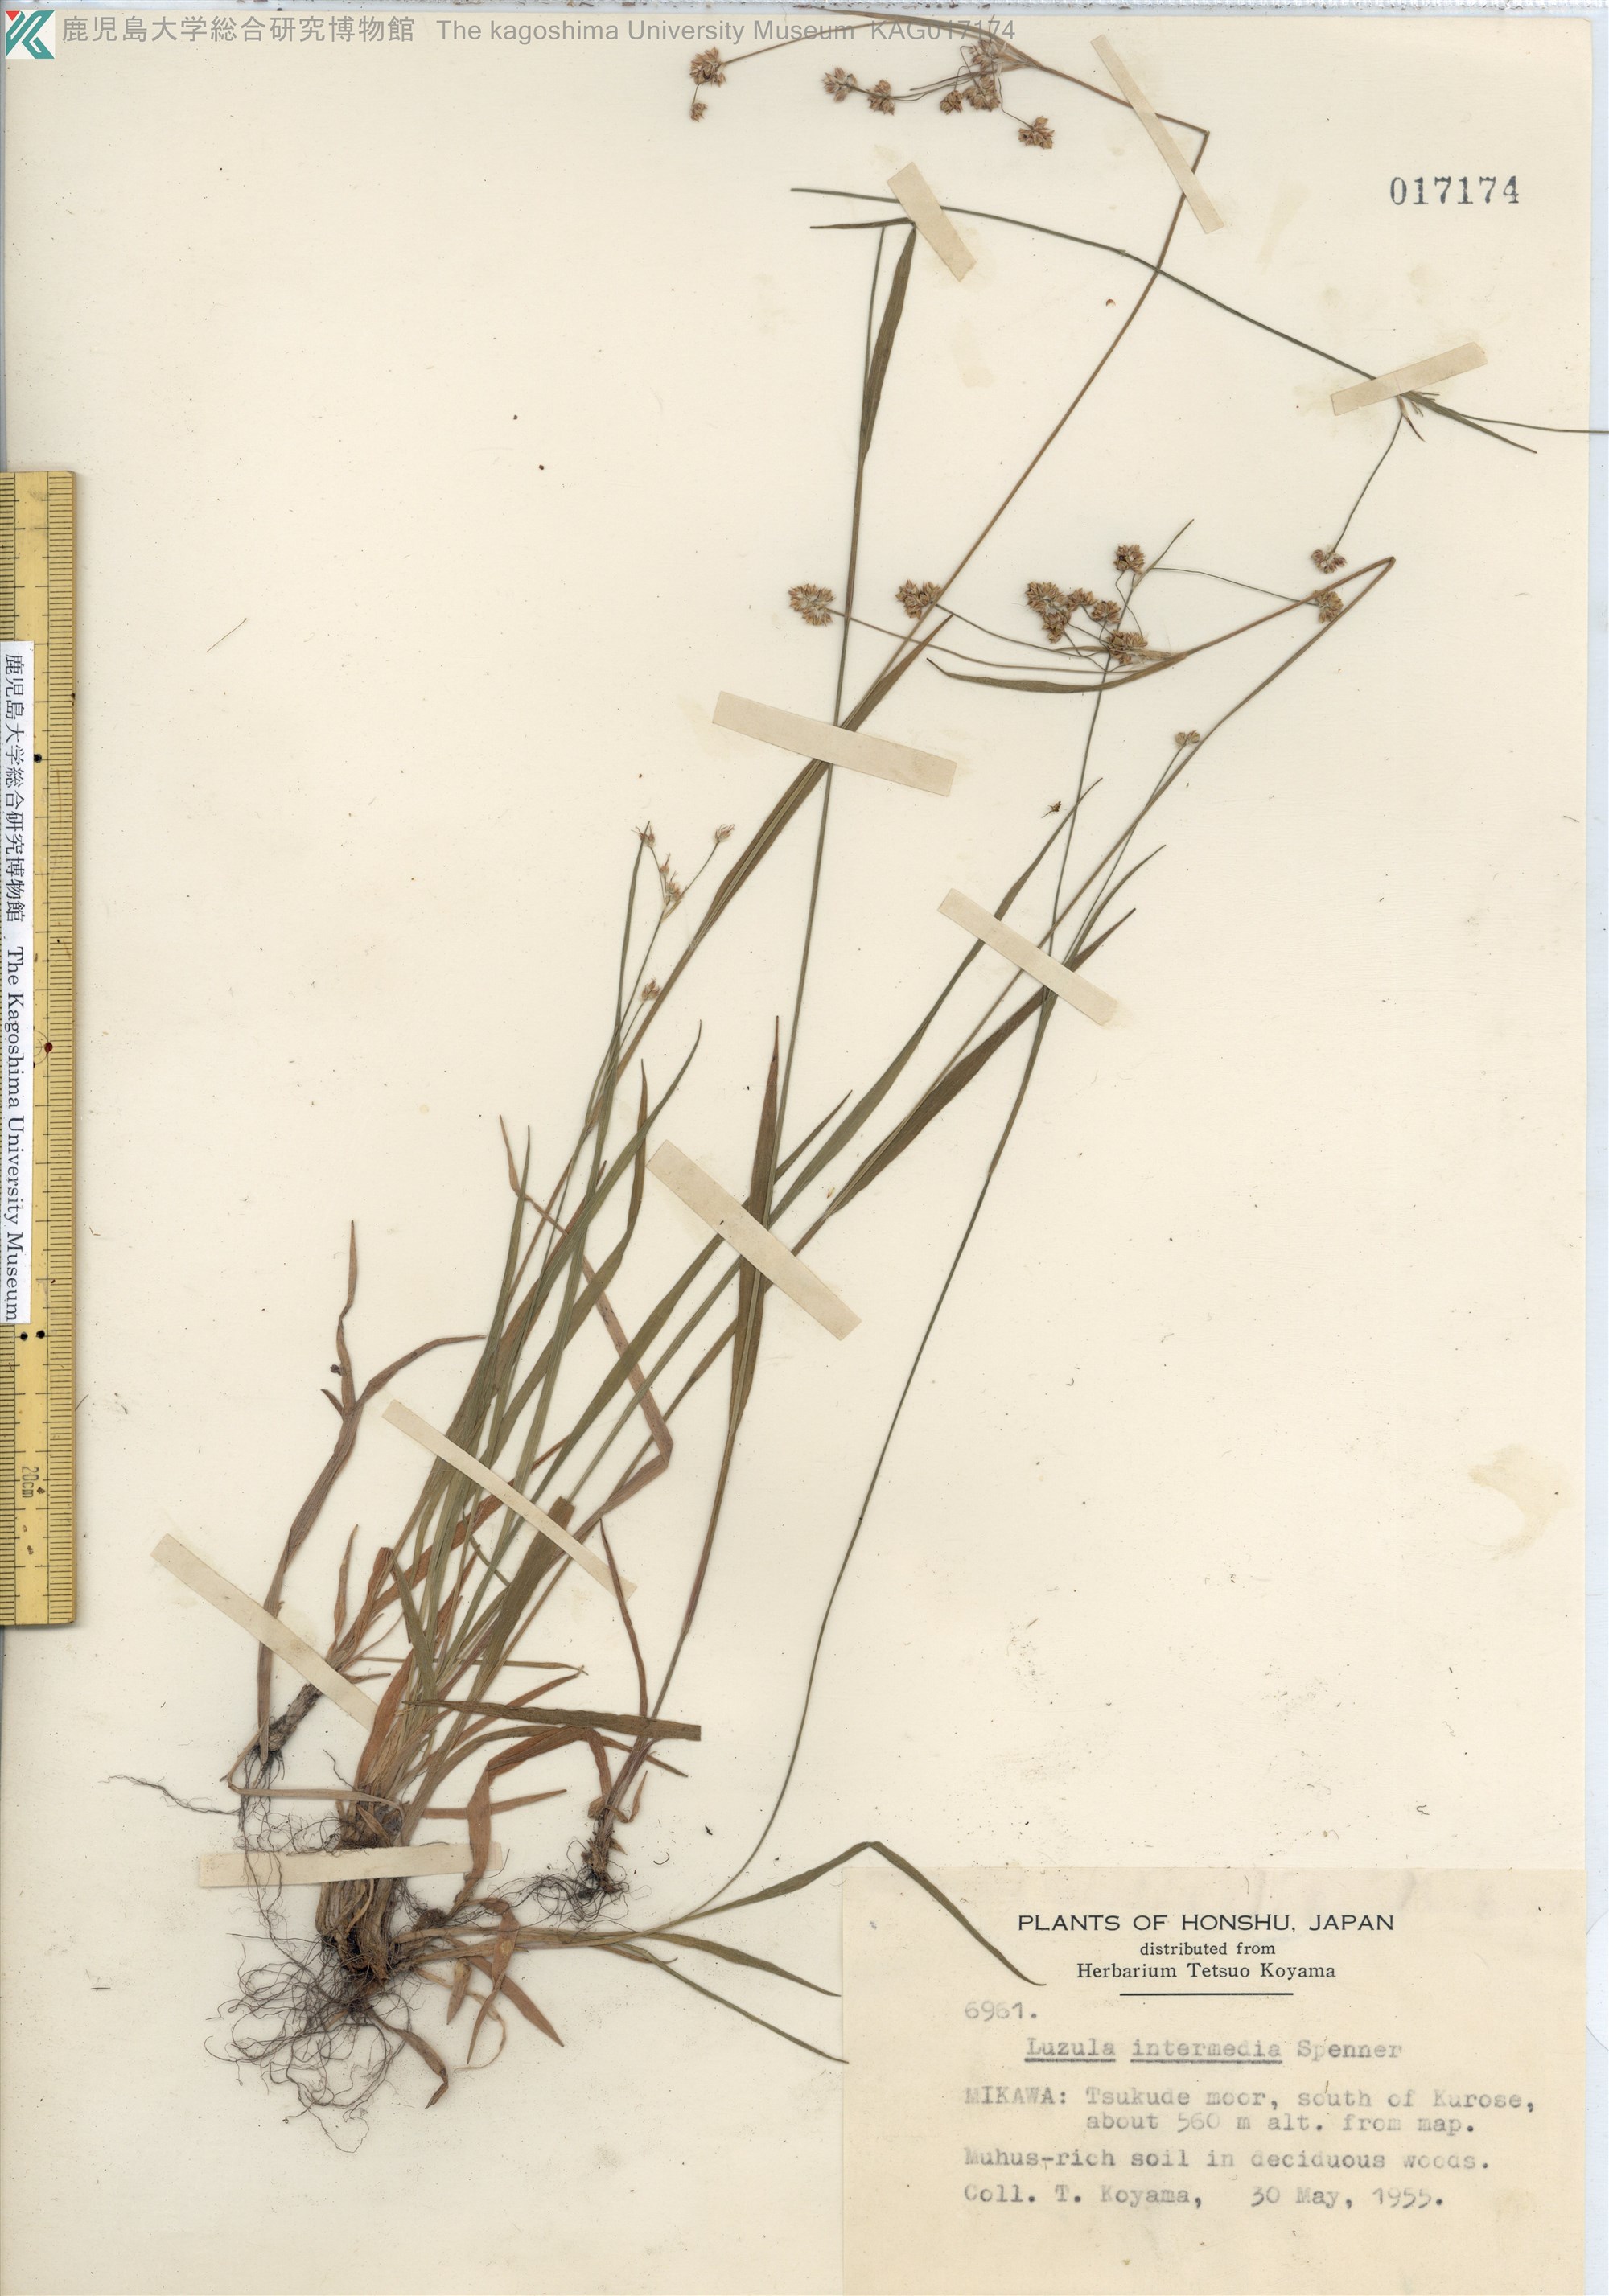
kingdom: Plantae
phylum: Tracheophyta
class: Liliopsida
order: Poales
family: Juncaceae
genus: Luzula
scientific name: Luzula multiflora
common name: Heath wood-rush
